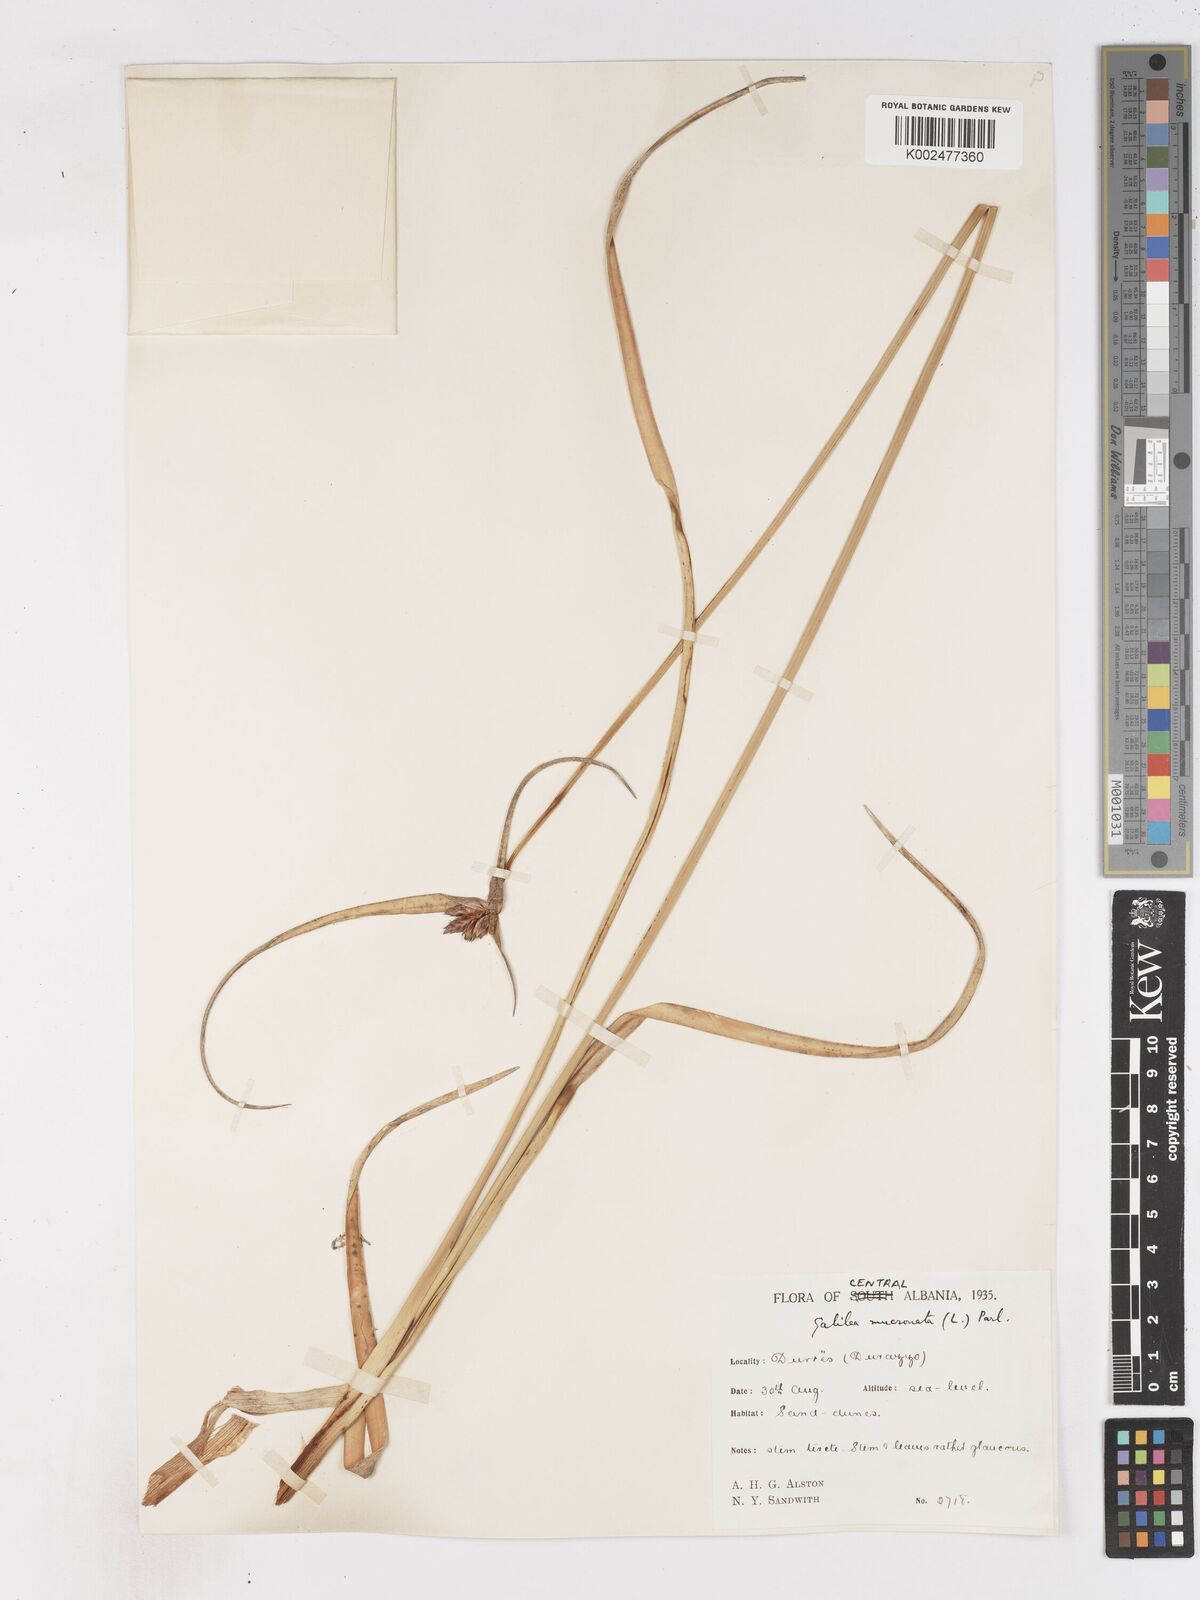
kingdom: Plantae
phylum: Tracheophyta
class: Liliopsida
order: Poales
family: Cyperaceae
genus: Cyperus
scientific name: Cyperus capitatus
